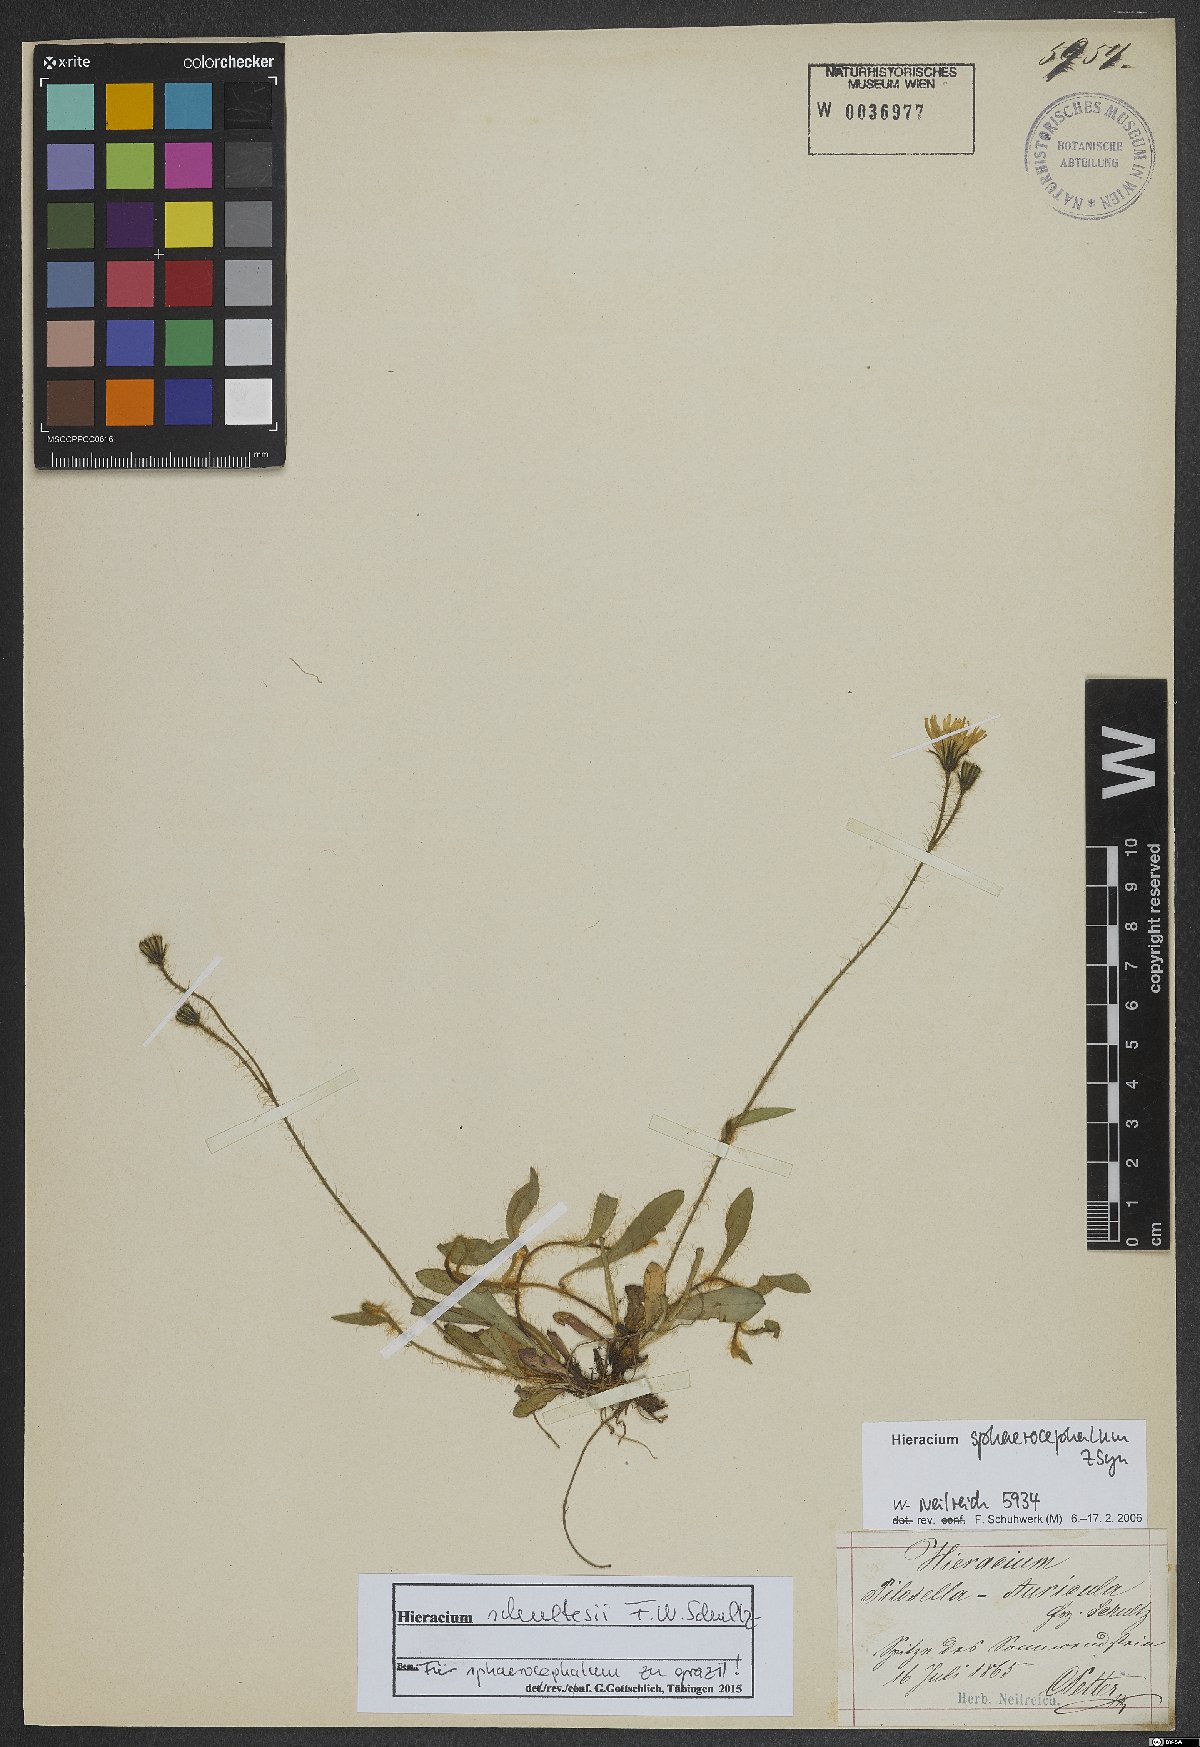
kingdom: Plantae
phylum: Tracheophyta
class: Magnoliopsida
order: Asterales
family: Asteraceae
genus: Pilosella
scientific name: Pilosella schultesii
